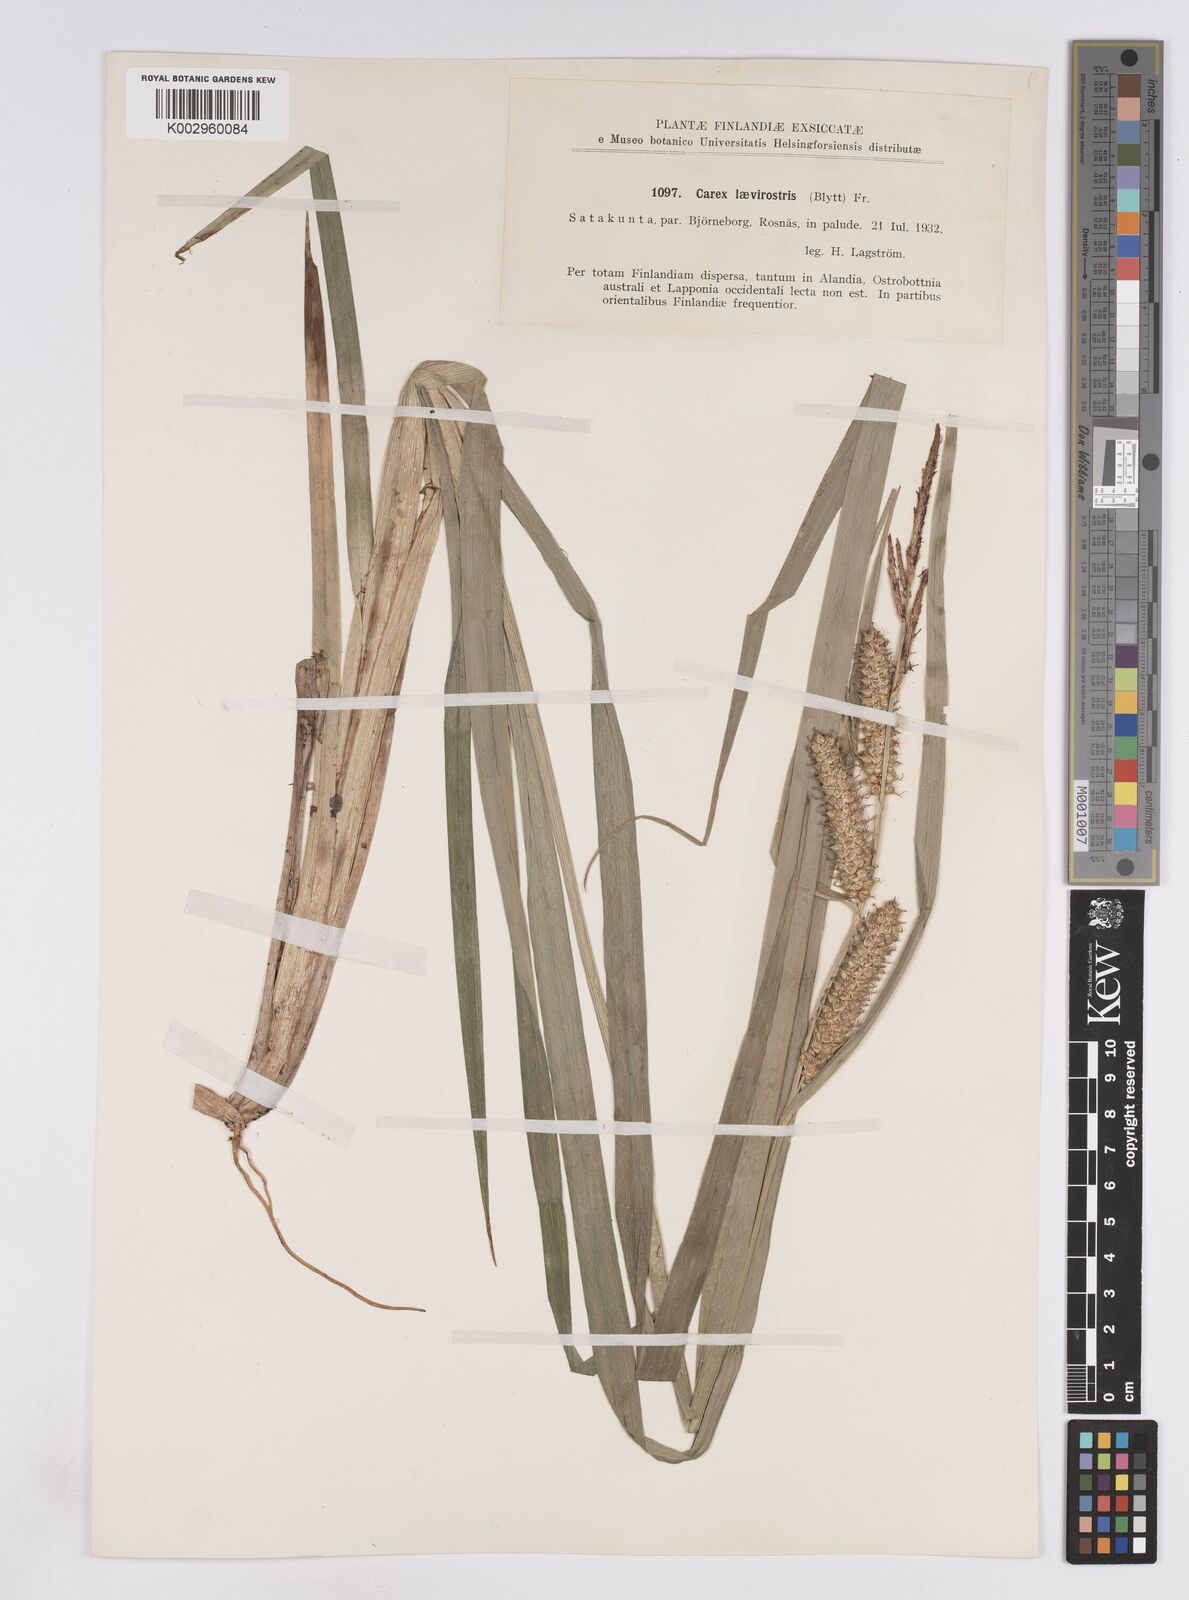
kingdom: Plantae
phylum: Tracheophyta
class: Liliopsida
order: Poales
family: Cyperaceae
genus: Carex
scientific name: Carex utriculata
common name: Beaked sedge
